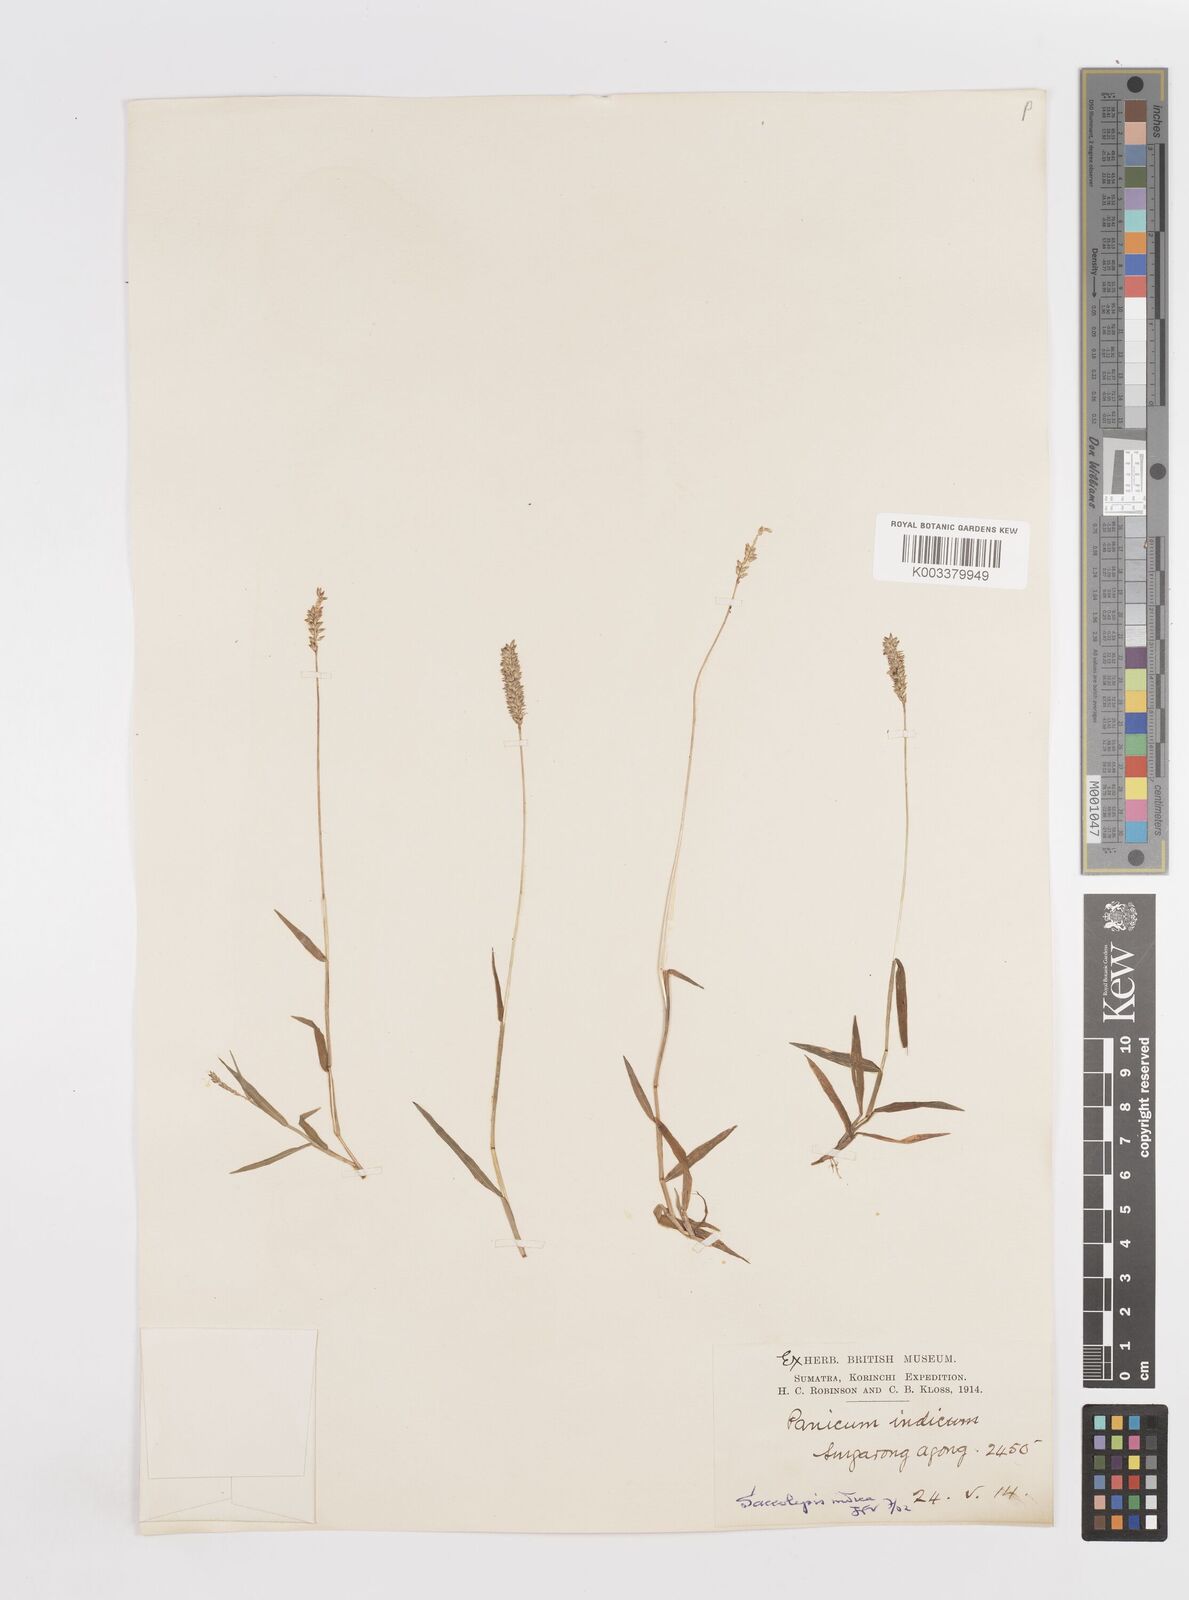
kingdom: Plantae
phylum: Tracheophyta
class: Liliopsida
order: Poales
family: Poaceae
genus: Sacciolepis
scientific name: Sacciolepis indica
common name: Glenwoodgrass
